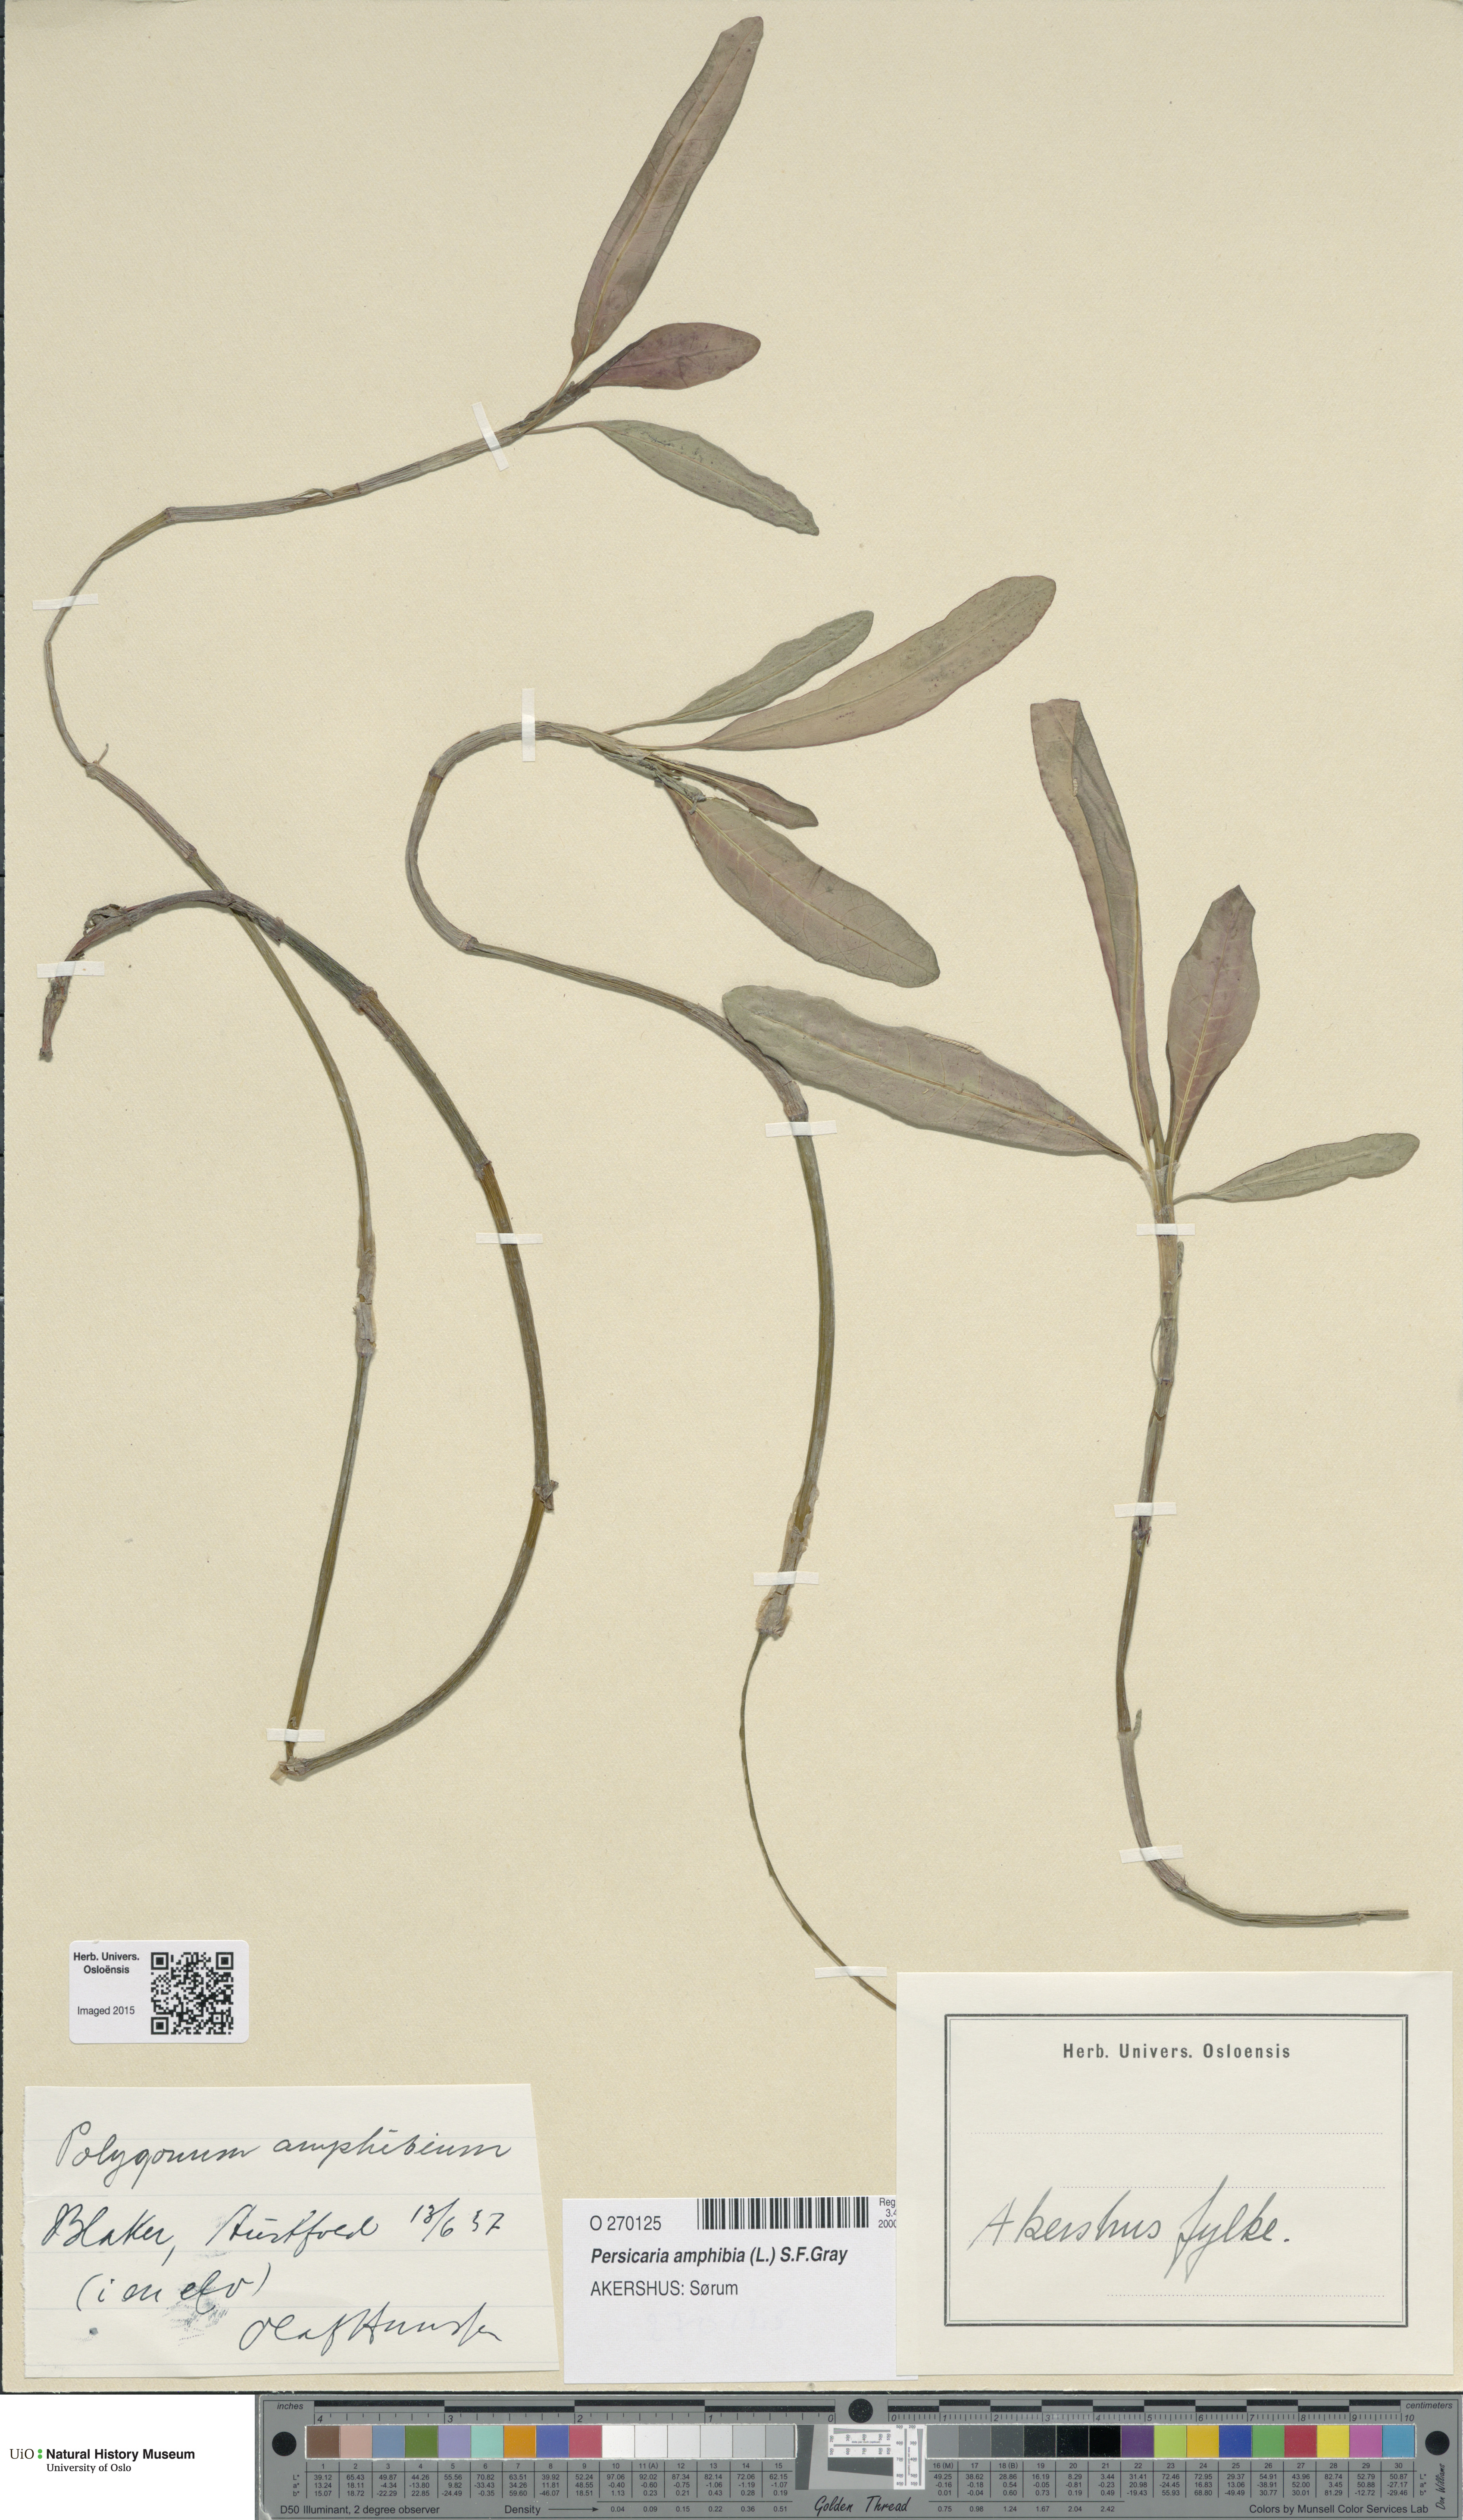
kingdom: Plantae
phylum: Tracheophyta
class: Magnoliopsida
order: Caryophyllales
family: Polygonaceae
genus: Persicaria
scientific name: Persicaria amphibia
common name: Amphibious bistort
